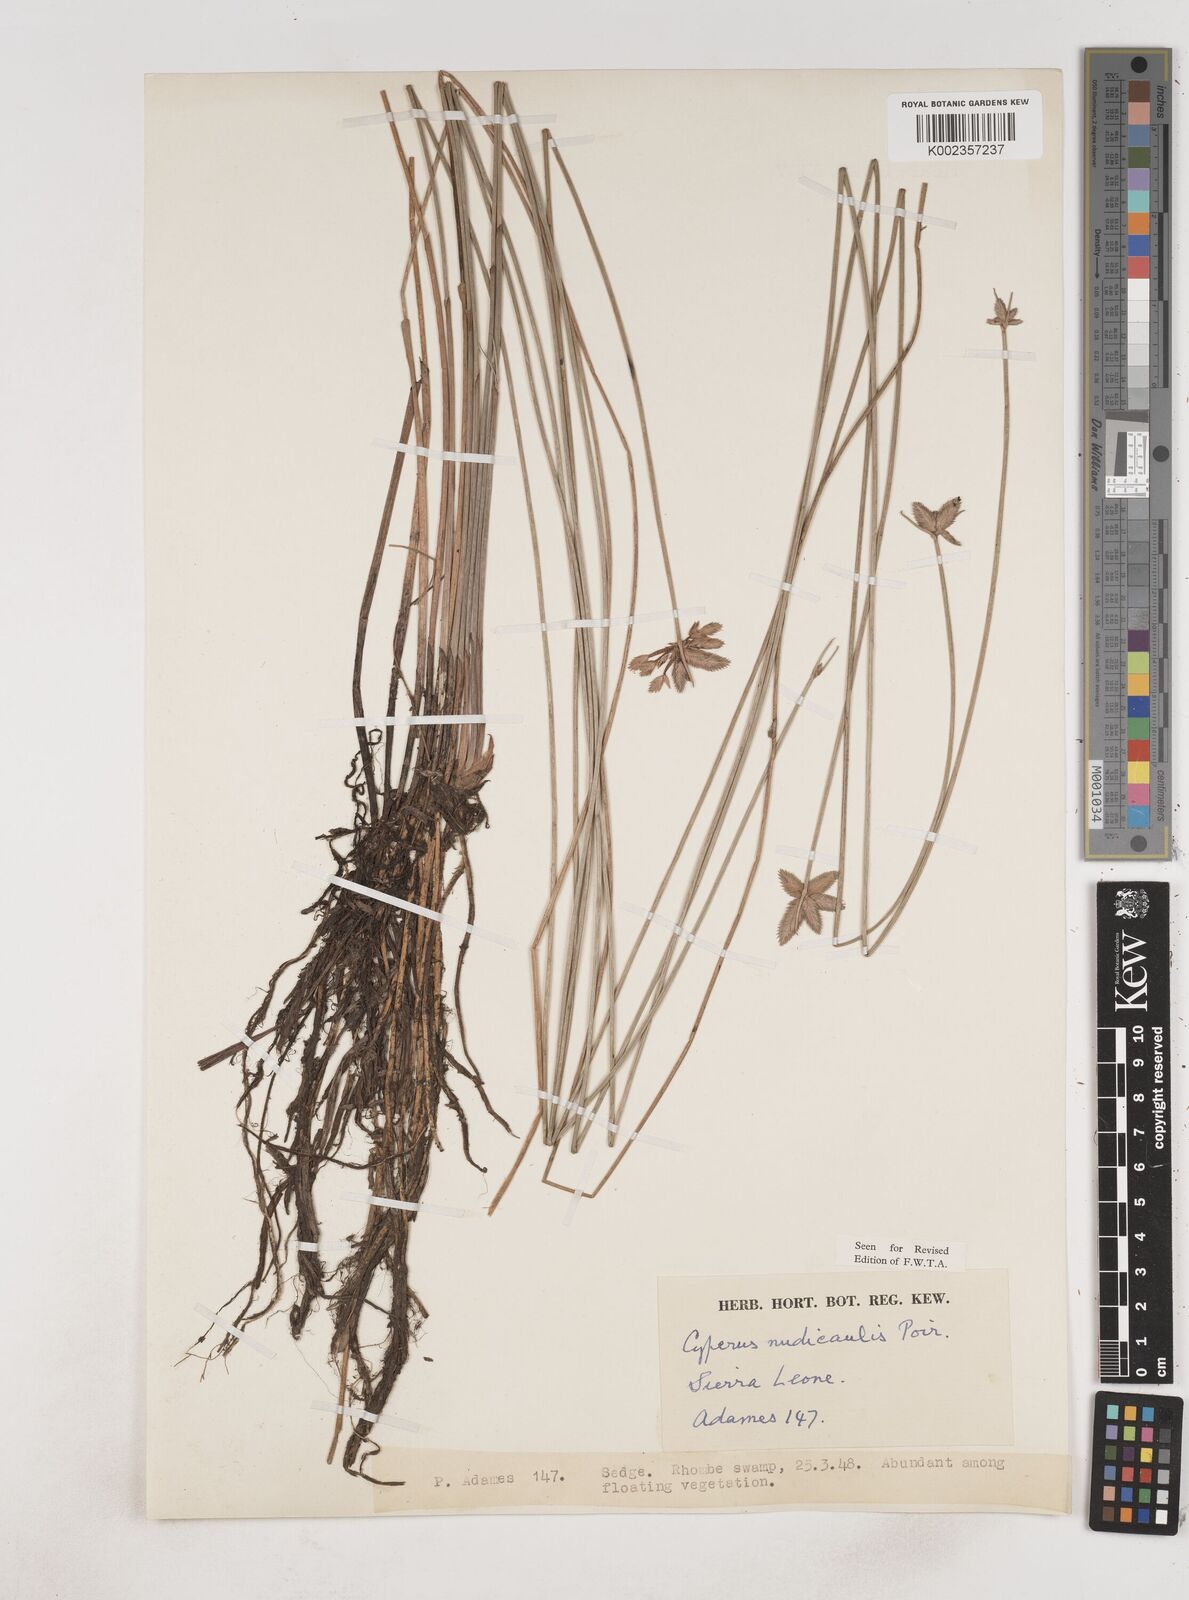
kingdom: Plantae
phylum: Tracheophyta
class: Liliopsida
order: Poales
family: Cyperaceae
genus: Cyperus
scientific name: Cyperus pectinatus
